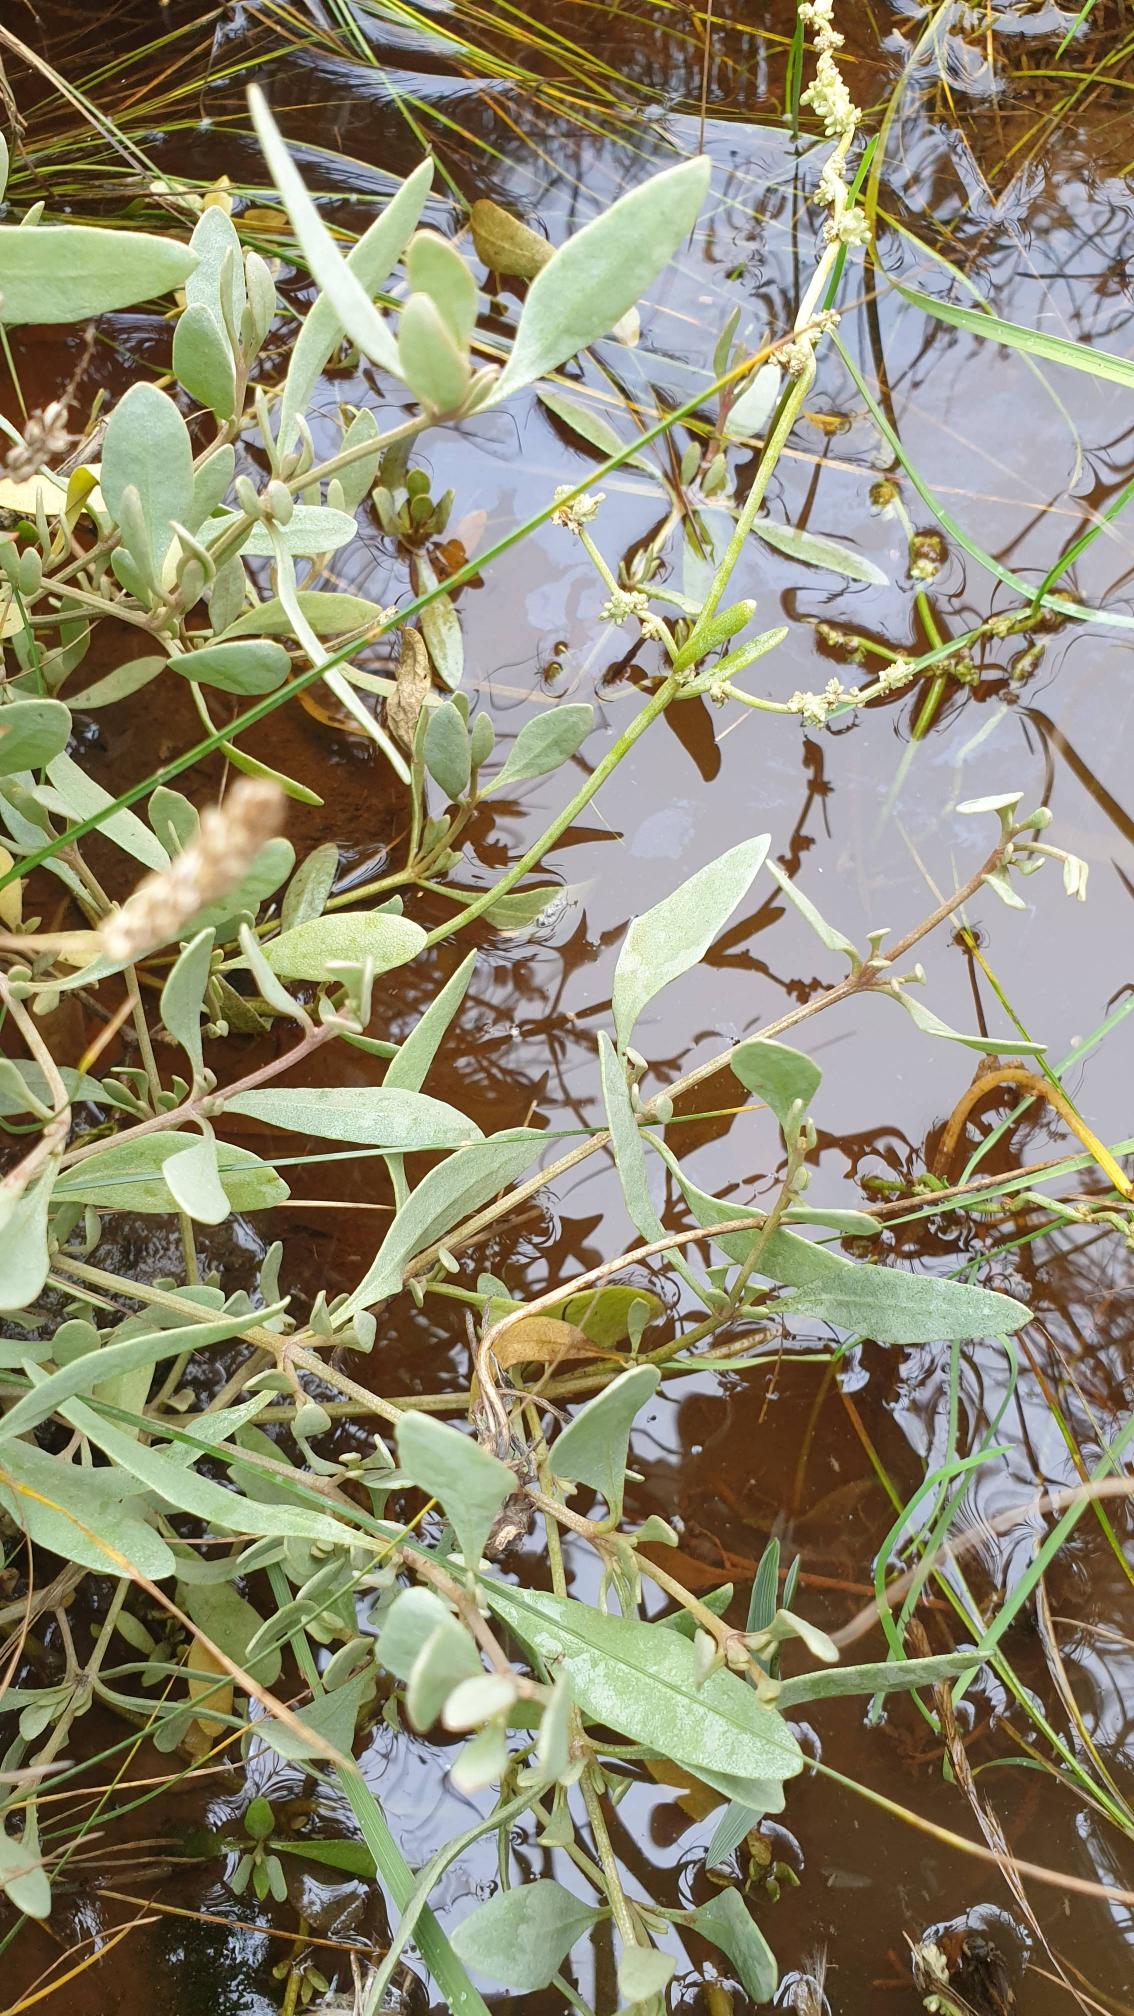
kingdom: Plantae
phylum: Tracheophyta
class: Magnoliopsida
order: Caryophyllales
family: Amaranthaceae
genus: Halimione
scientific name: Halimione portulacoides
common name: Stilkløs kilebæger
